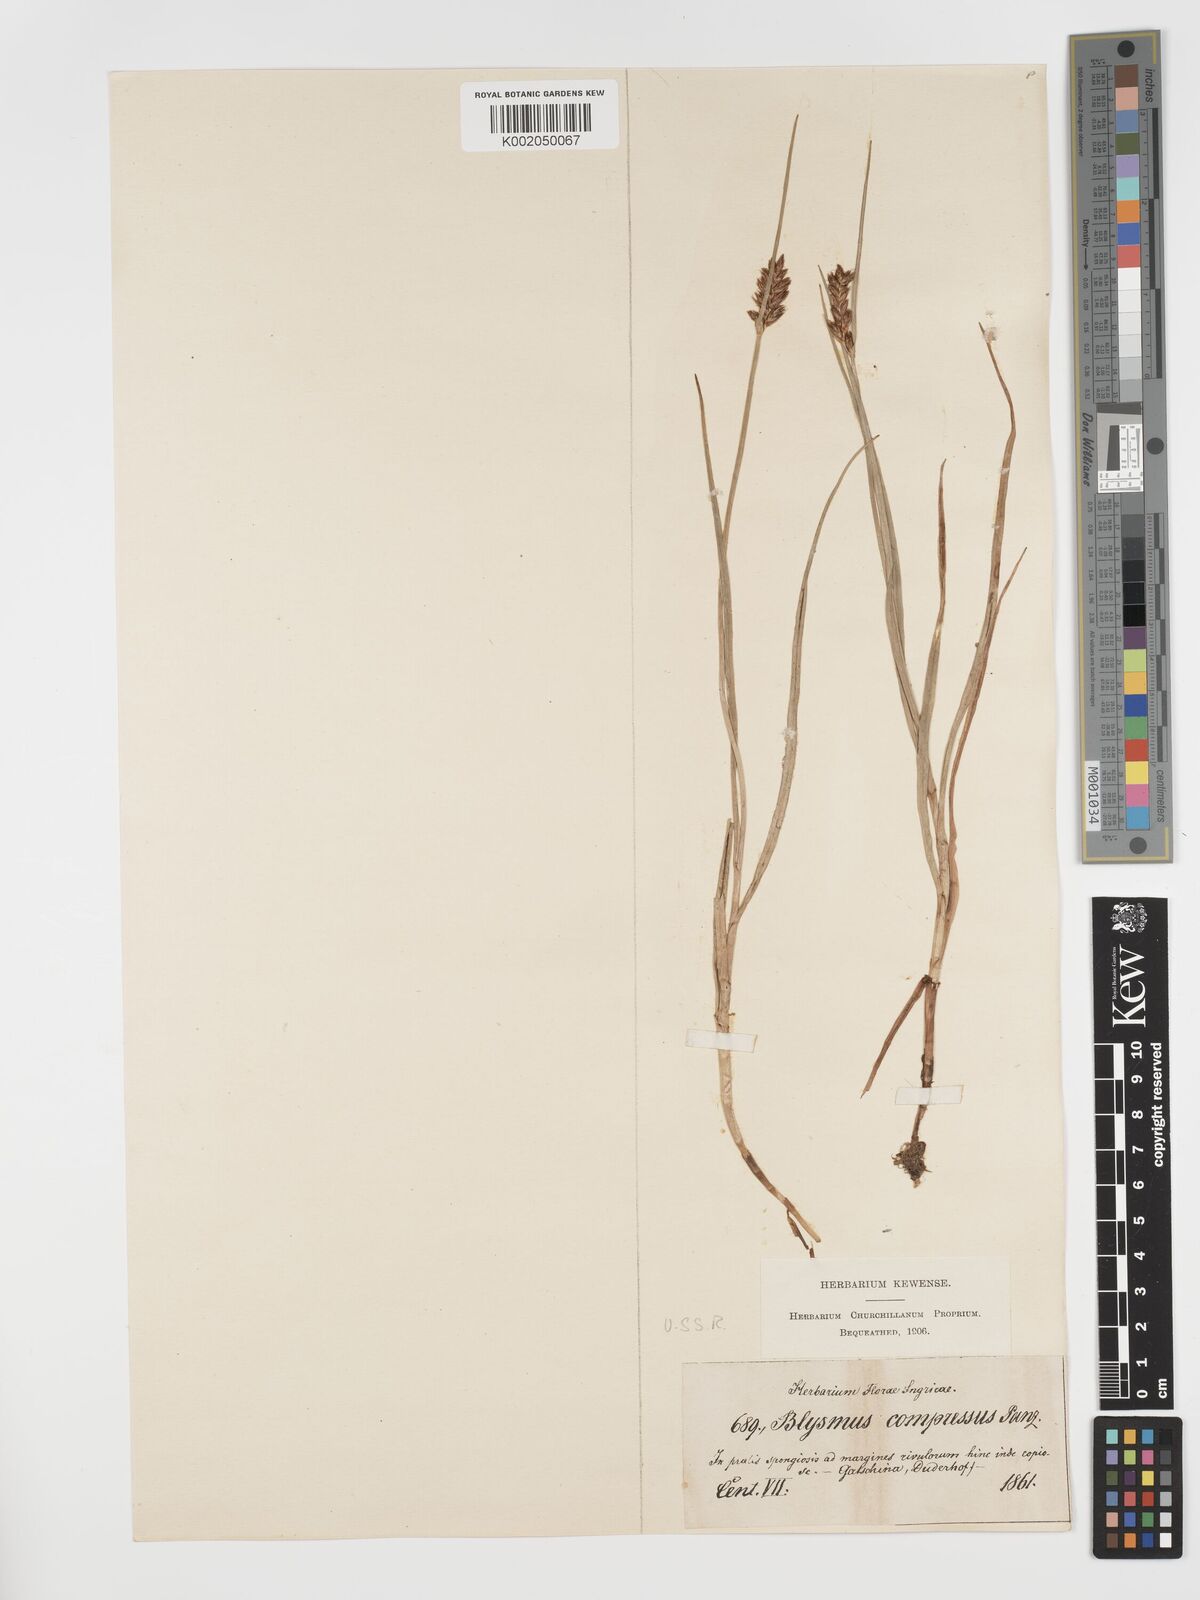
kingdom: Plantae
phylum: Tracheophyta
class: Liliopsida
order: Poales
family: Cyperaceae
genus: Blysmus
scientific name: Blysmus compressus
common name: Flat-sedge
